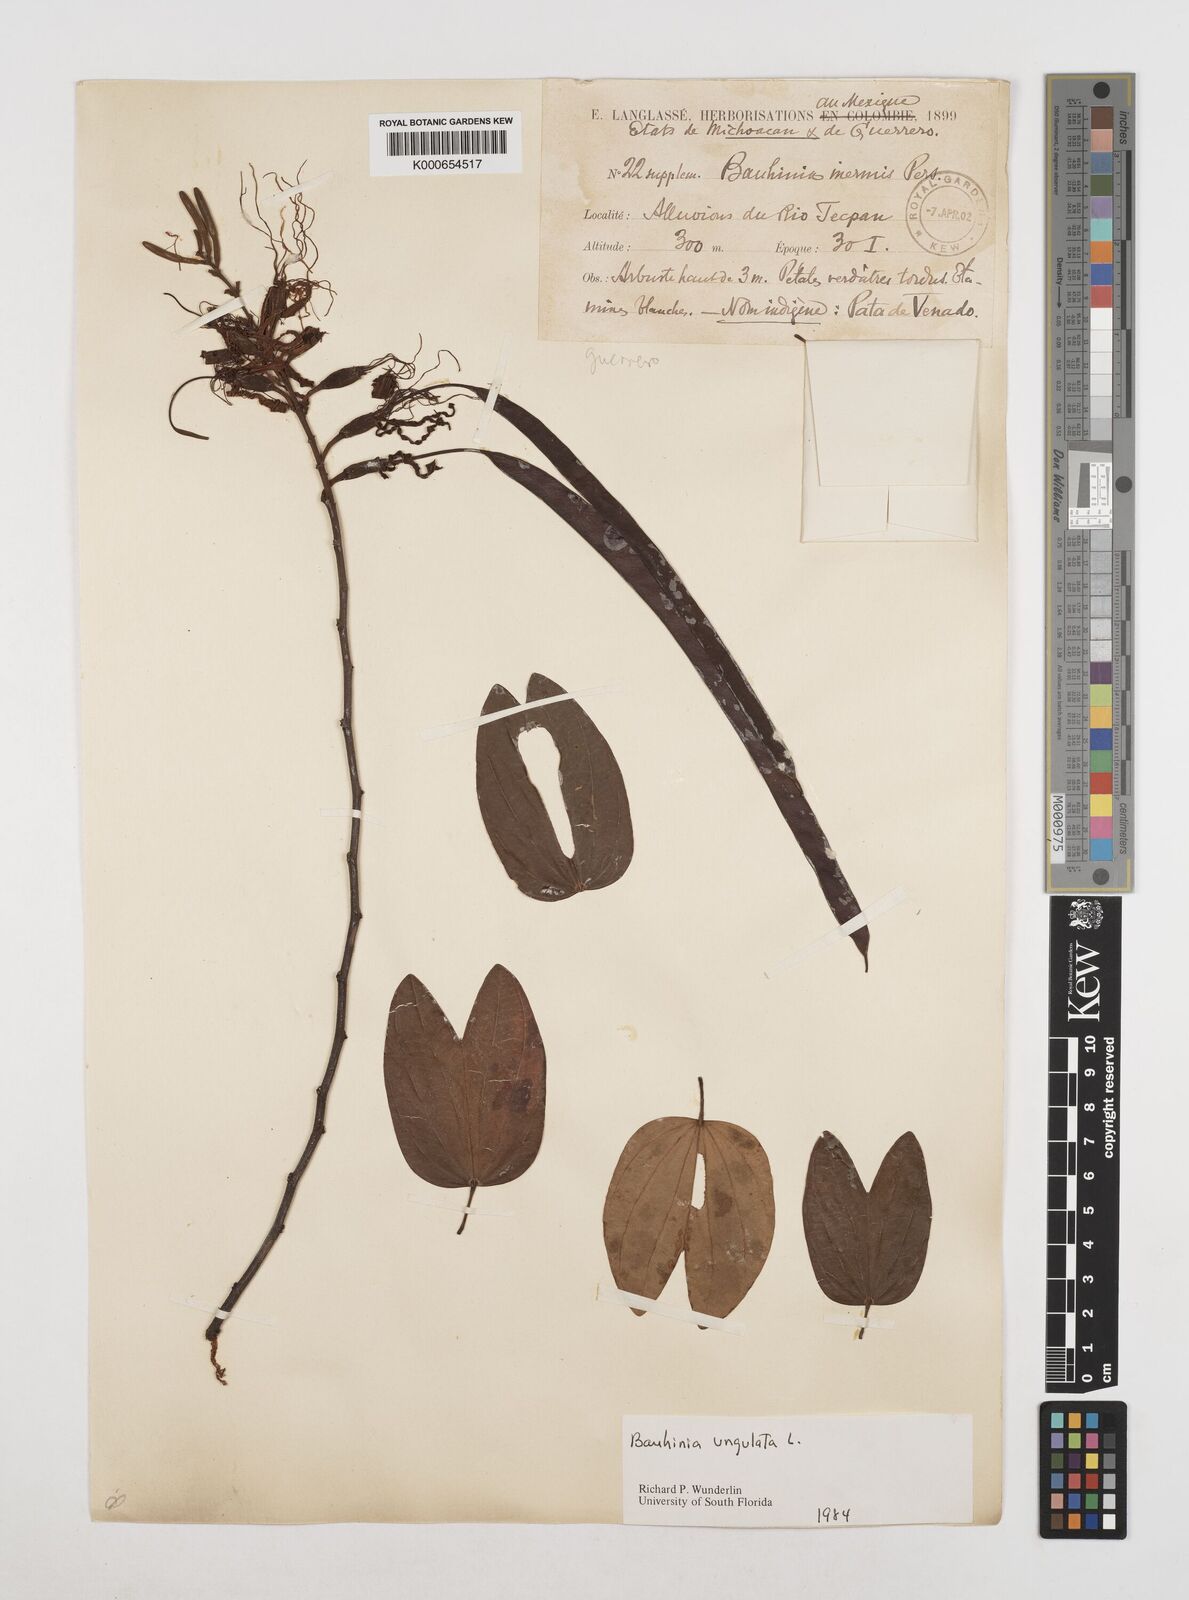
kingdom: Plantae
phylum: Tracheophyta
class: Magnoliopsida
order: Fabales
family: Fabaceae
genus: Bauhinia
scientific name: Bauhinia ungulata
